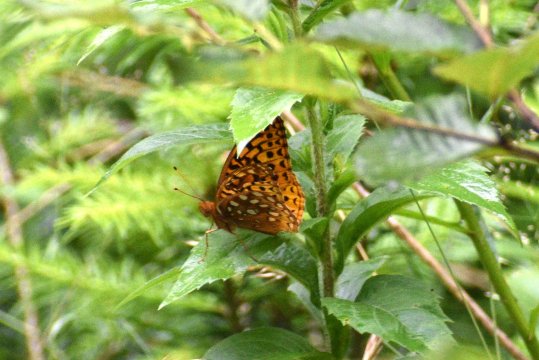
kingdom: Animalia
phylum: Arthropoda
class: Insecta
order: Lepidoptera
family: Nymphalidae
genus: Speyeria
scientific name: Speyeria cybele
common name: Great Spangled Fritillary
